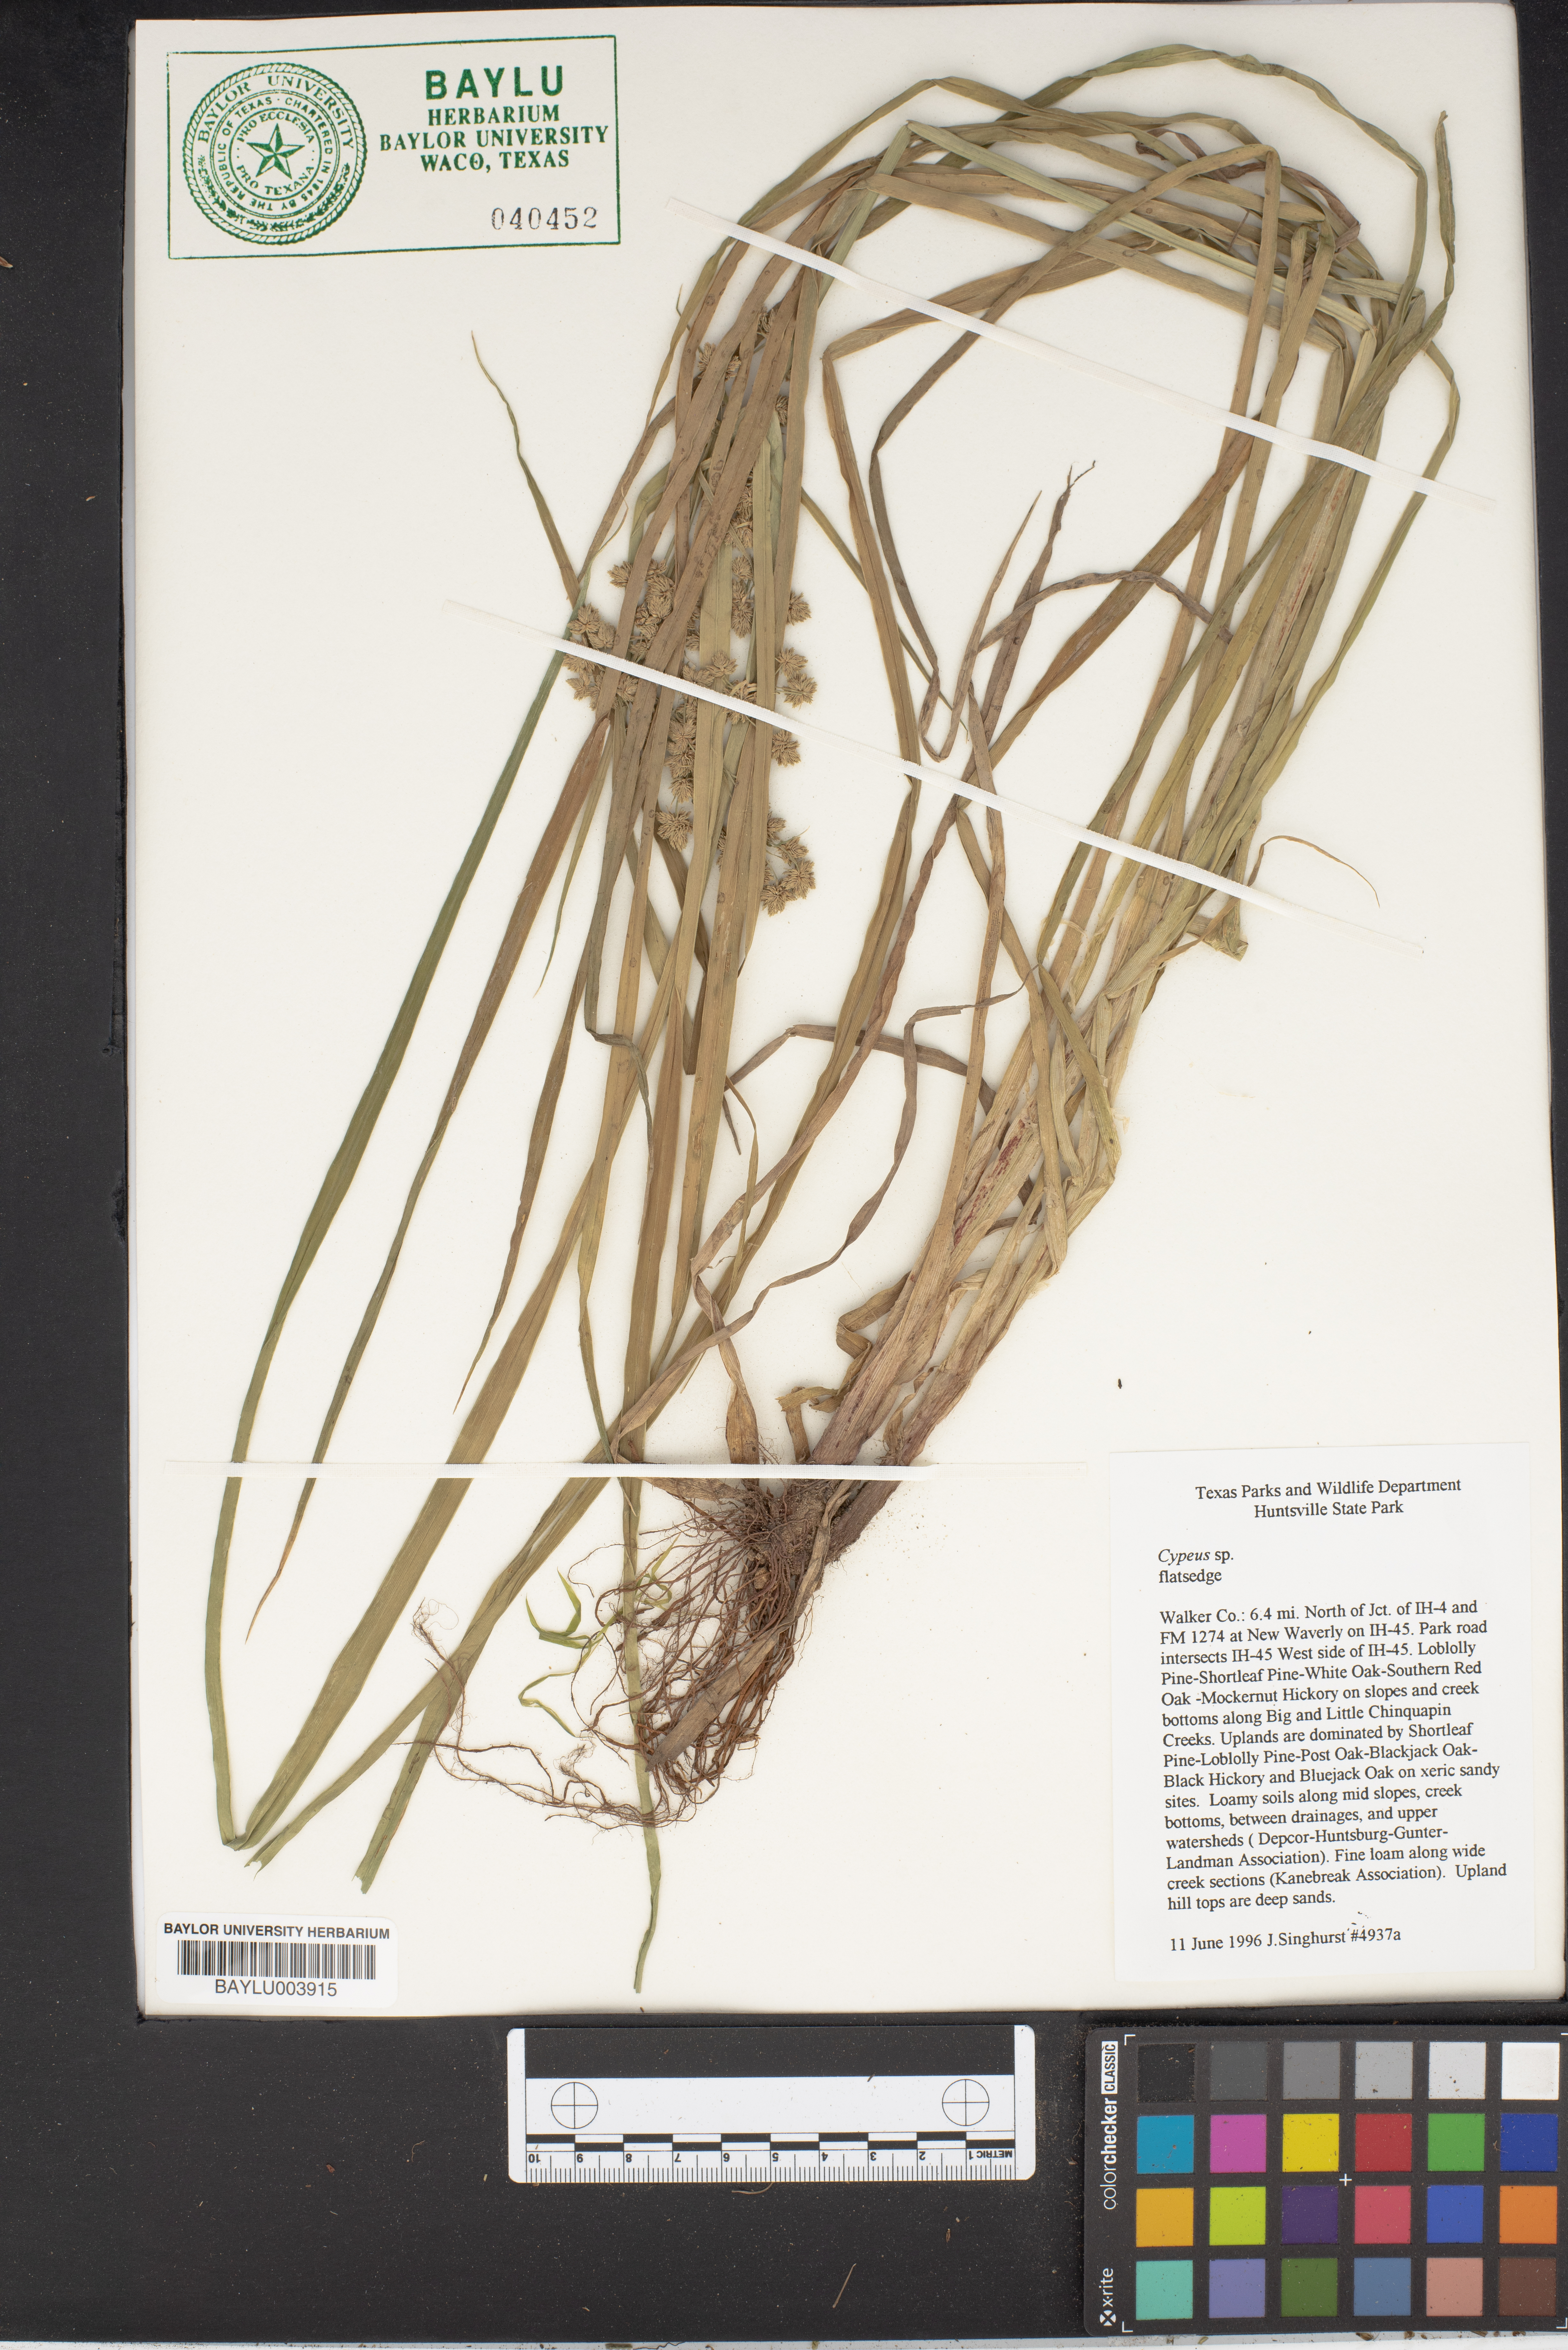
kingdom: Plantae
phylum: Tracheophyta
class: Liliopsida
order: Poales
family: Cyperaceae
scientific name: Cyperaceae
